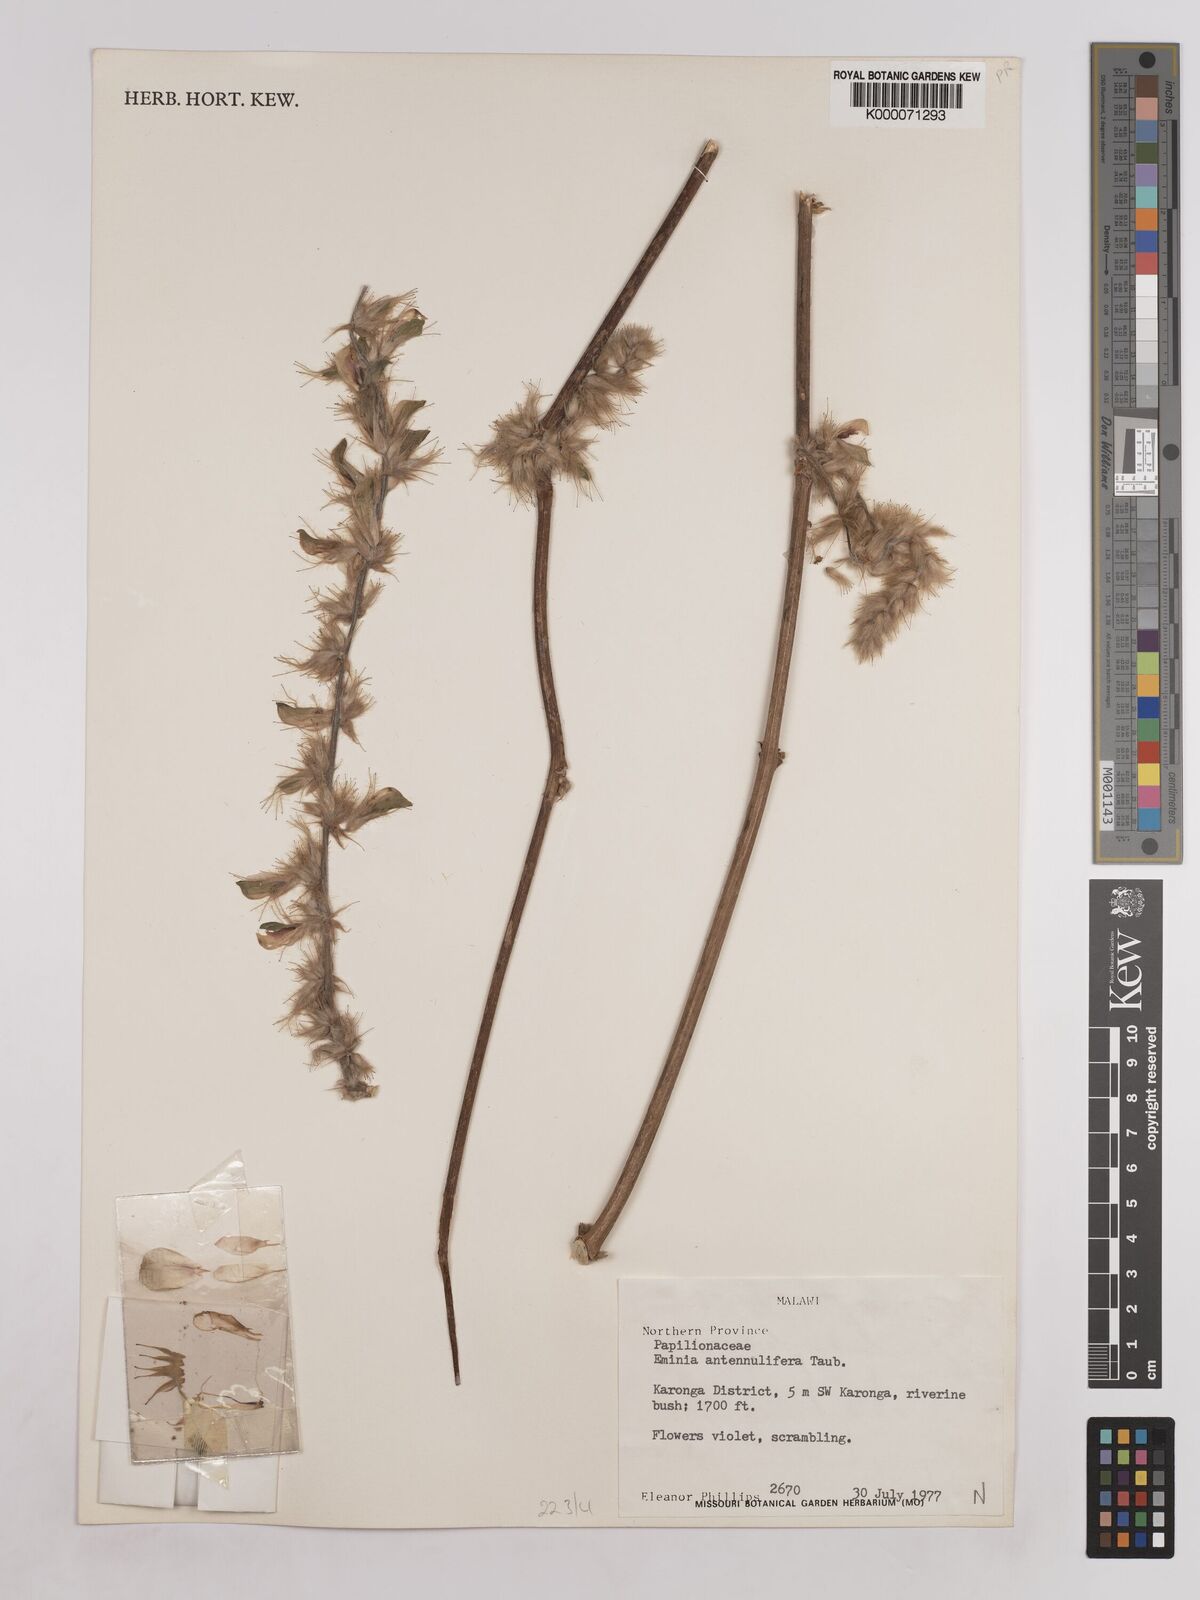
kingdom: Plantae
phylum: Tracheophyta
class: Magnoliopsida
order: Fabales
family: Fabaceae
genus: Eminia
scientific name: Eminia antennulifera
